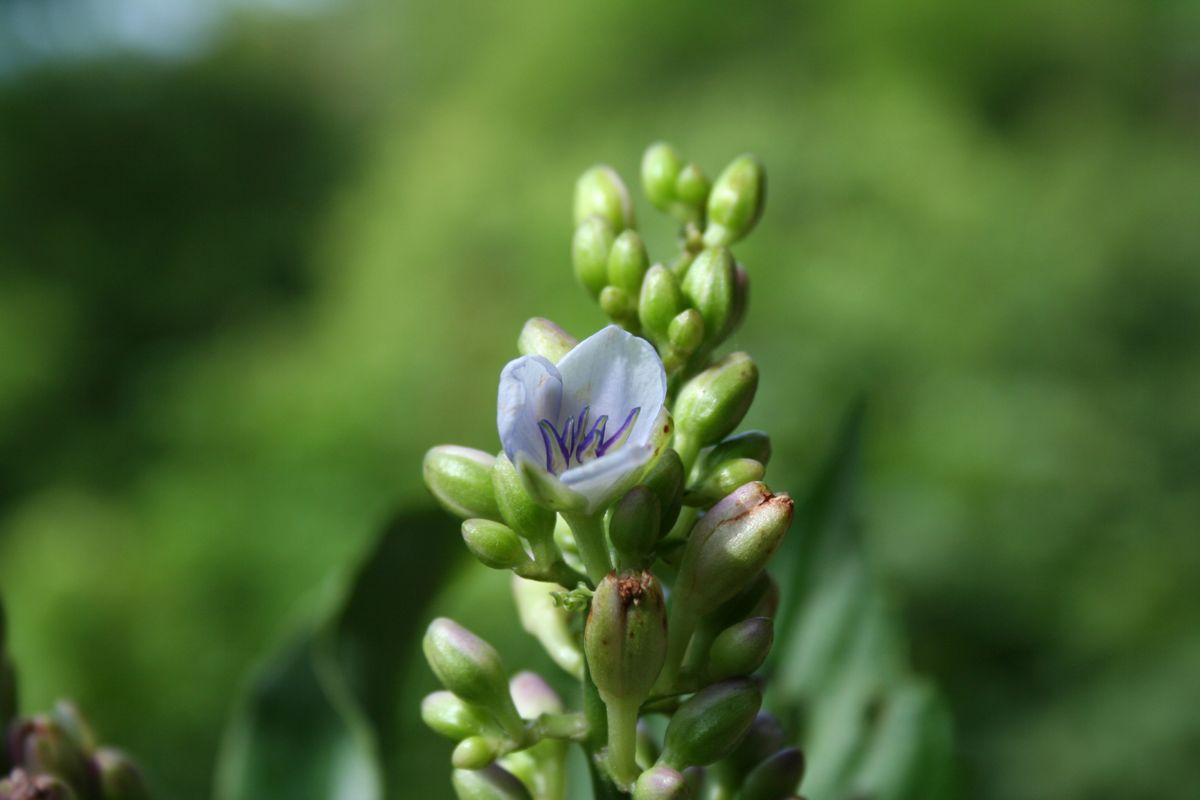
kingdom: Plantae
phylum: Tracheophyta
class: Liliopsida
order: Commelinales
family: Commelinaceae
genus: Dichorisandra
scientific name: Dichorisandra amabilis
